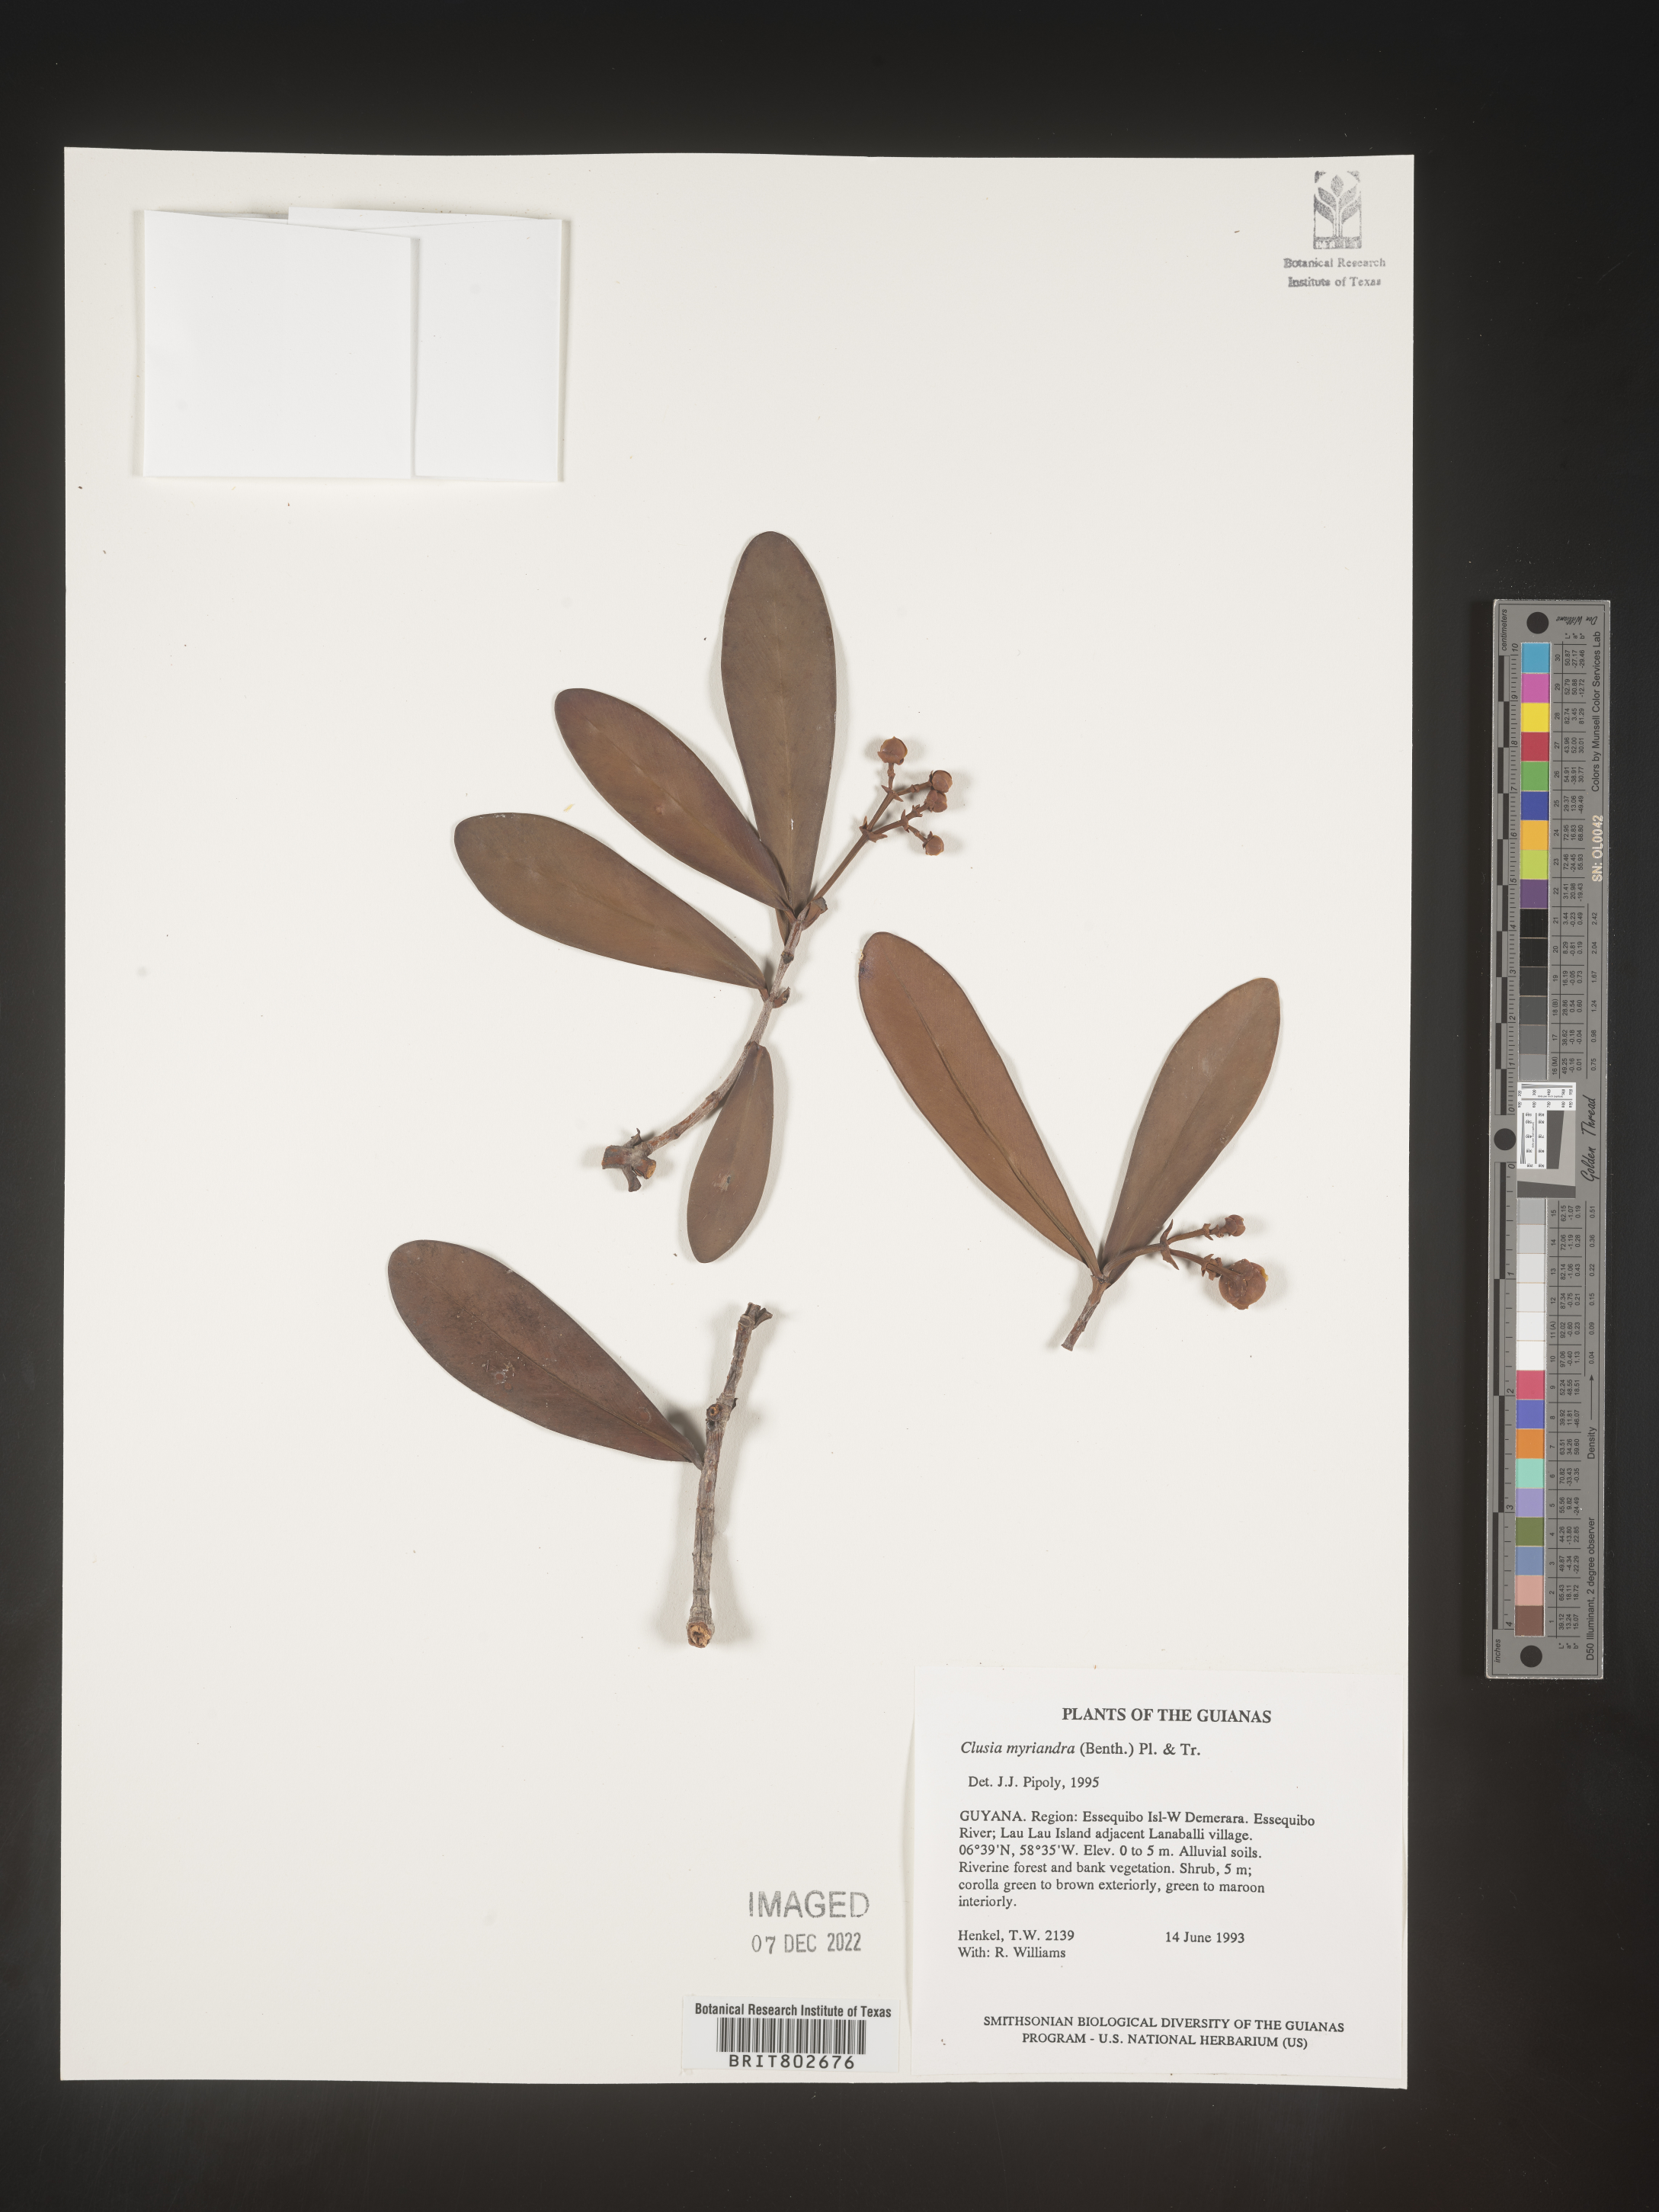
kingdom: Plantae
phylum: Tracheophyta
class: Magnoliopsida
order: Malpighiales
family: Clusiaceae
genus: Clusia
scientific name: Clusia myriandra
